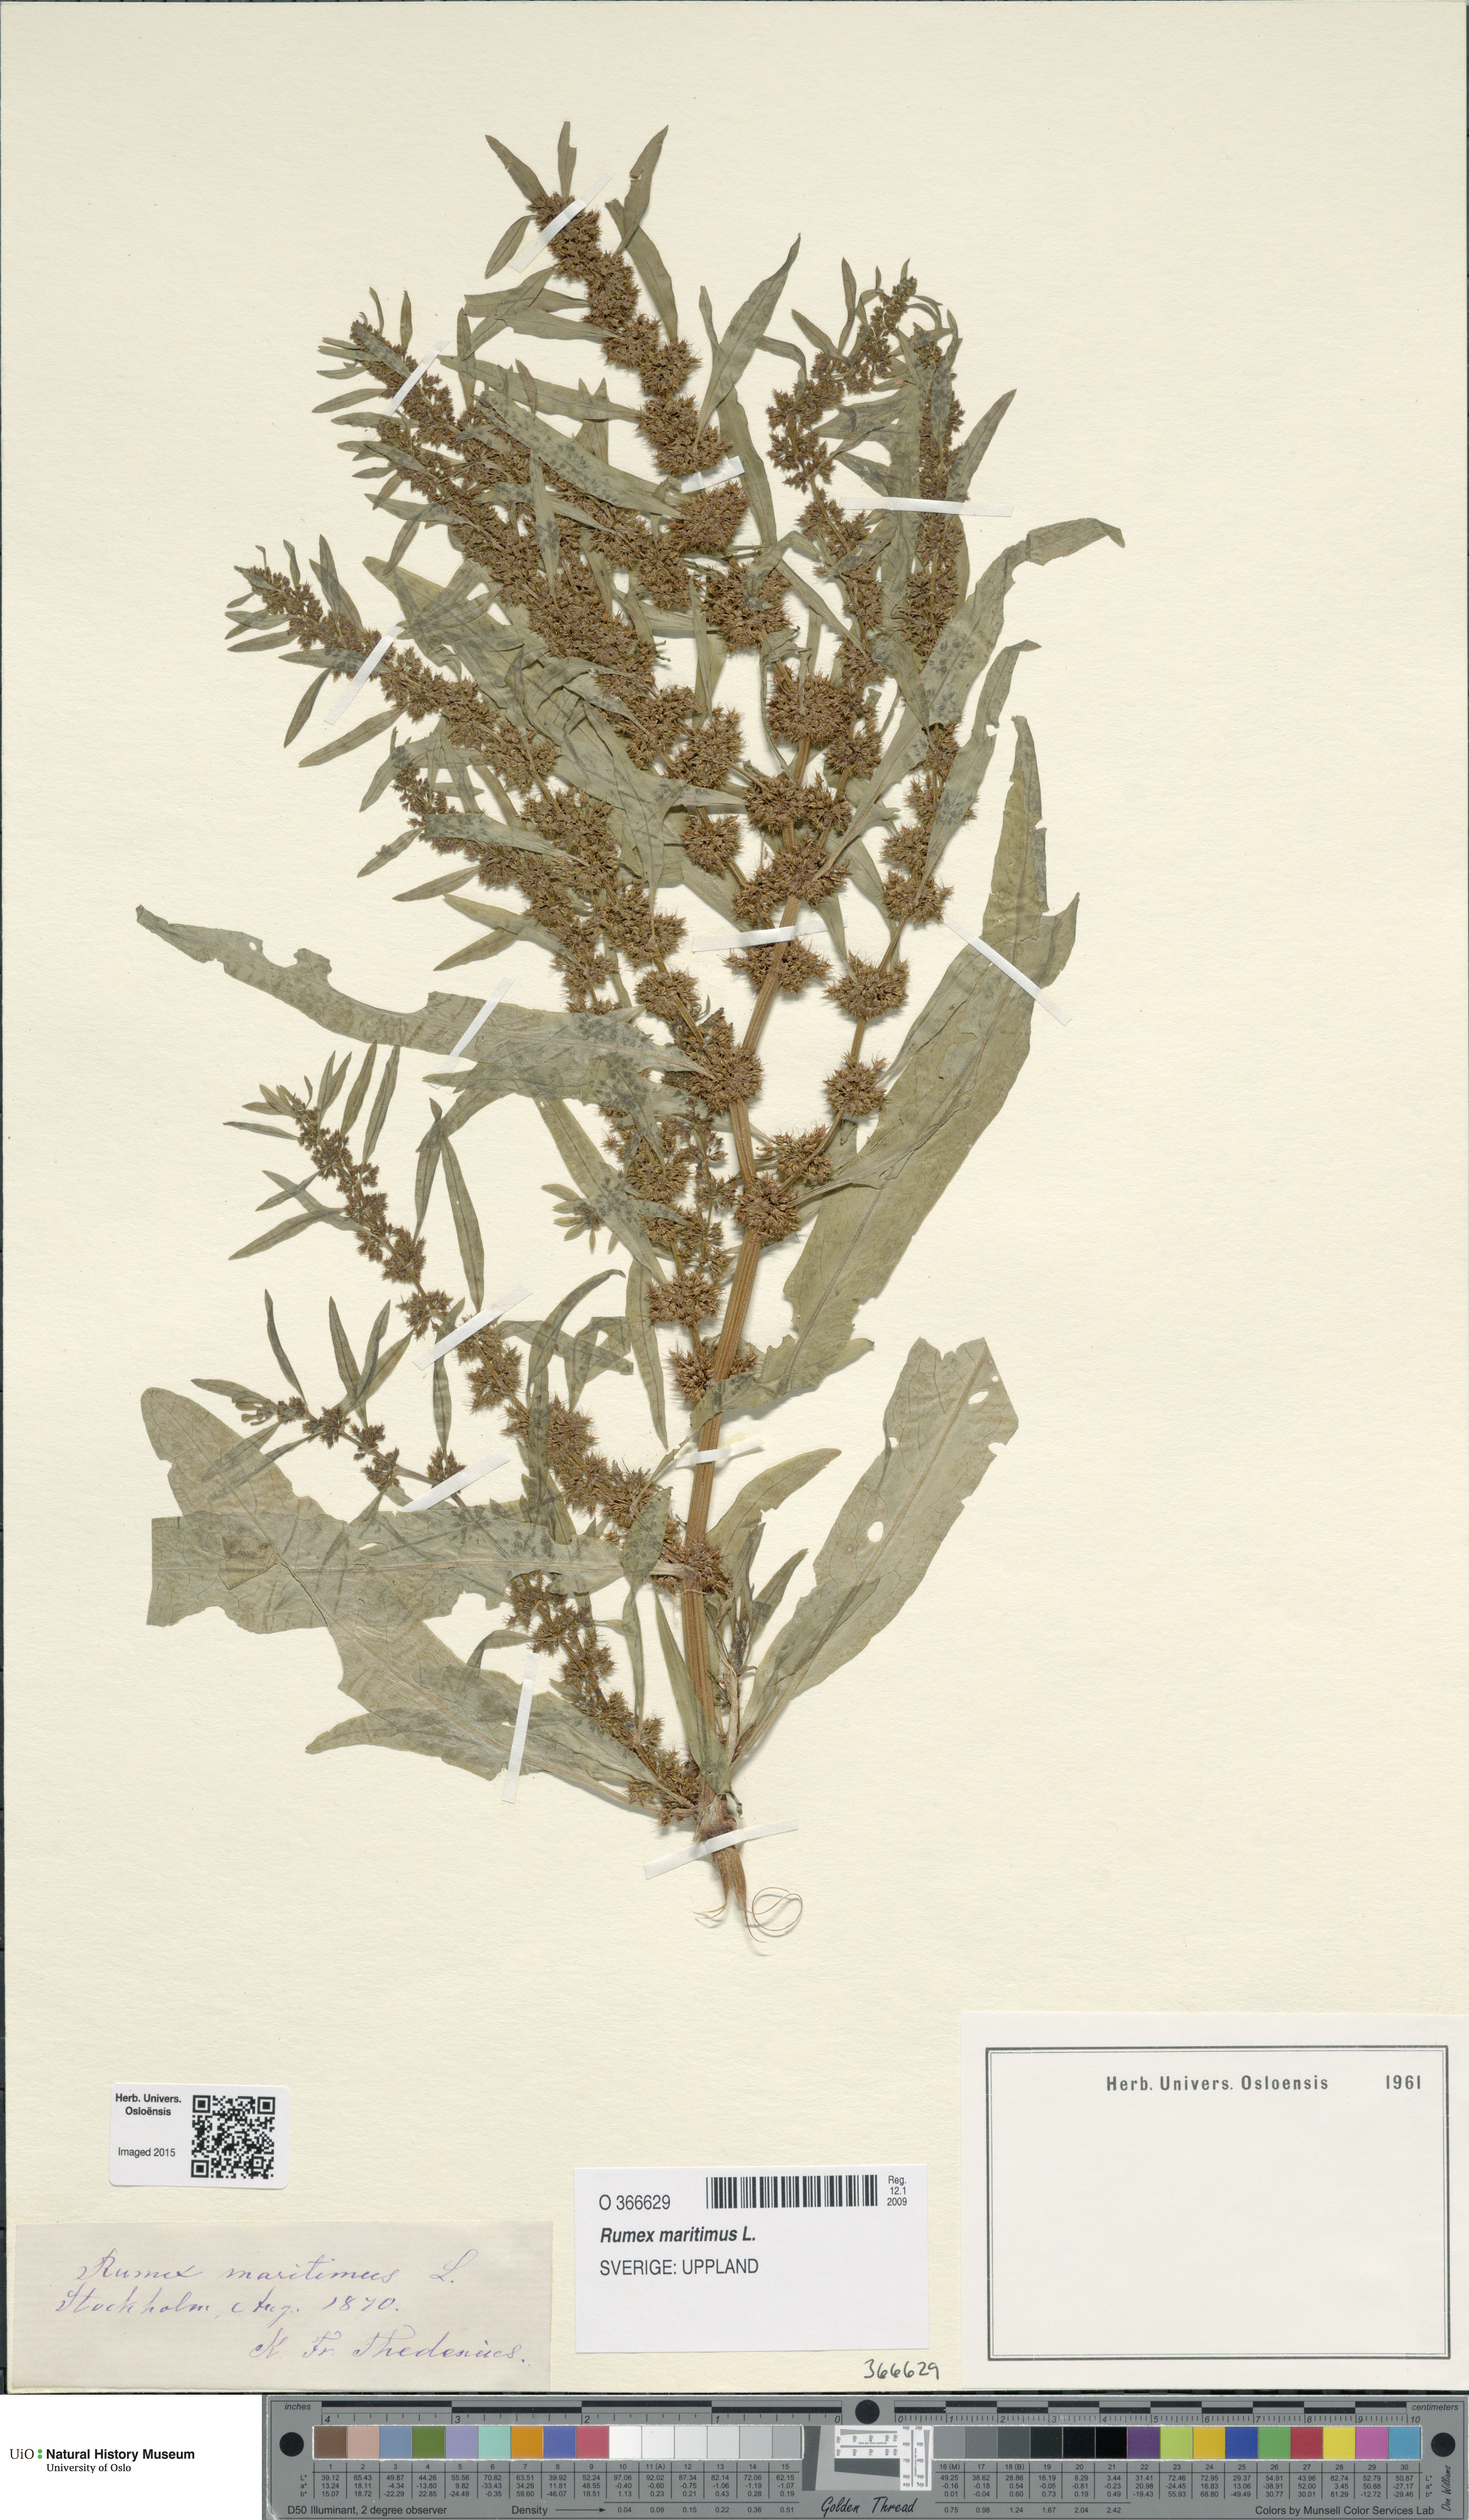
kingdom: Plantae
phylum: Tracheophyta
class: Magnoliopsida
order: Caryophyllales
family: Polygonaceae
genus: Rumex
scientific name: Rumex maritimus
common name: Golden dock
